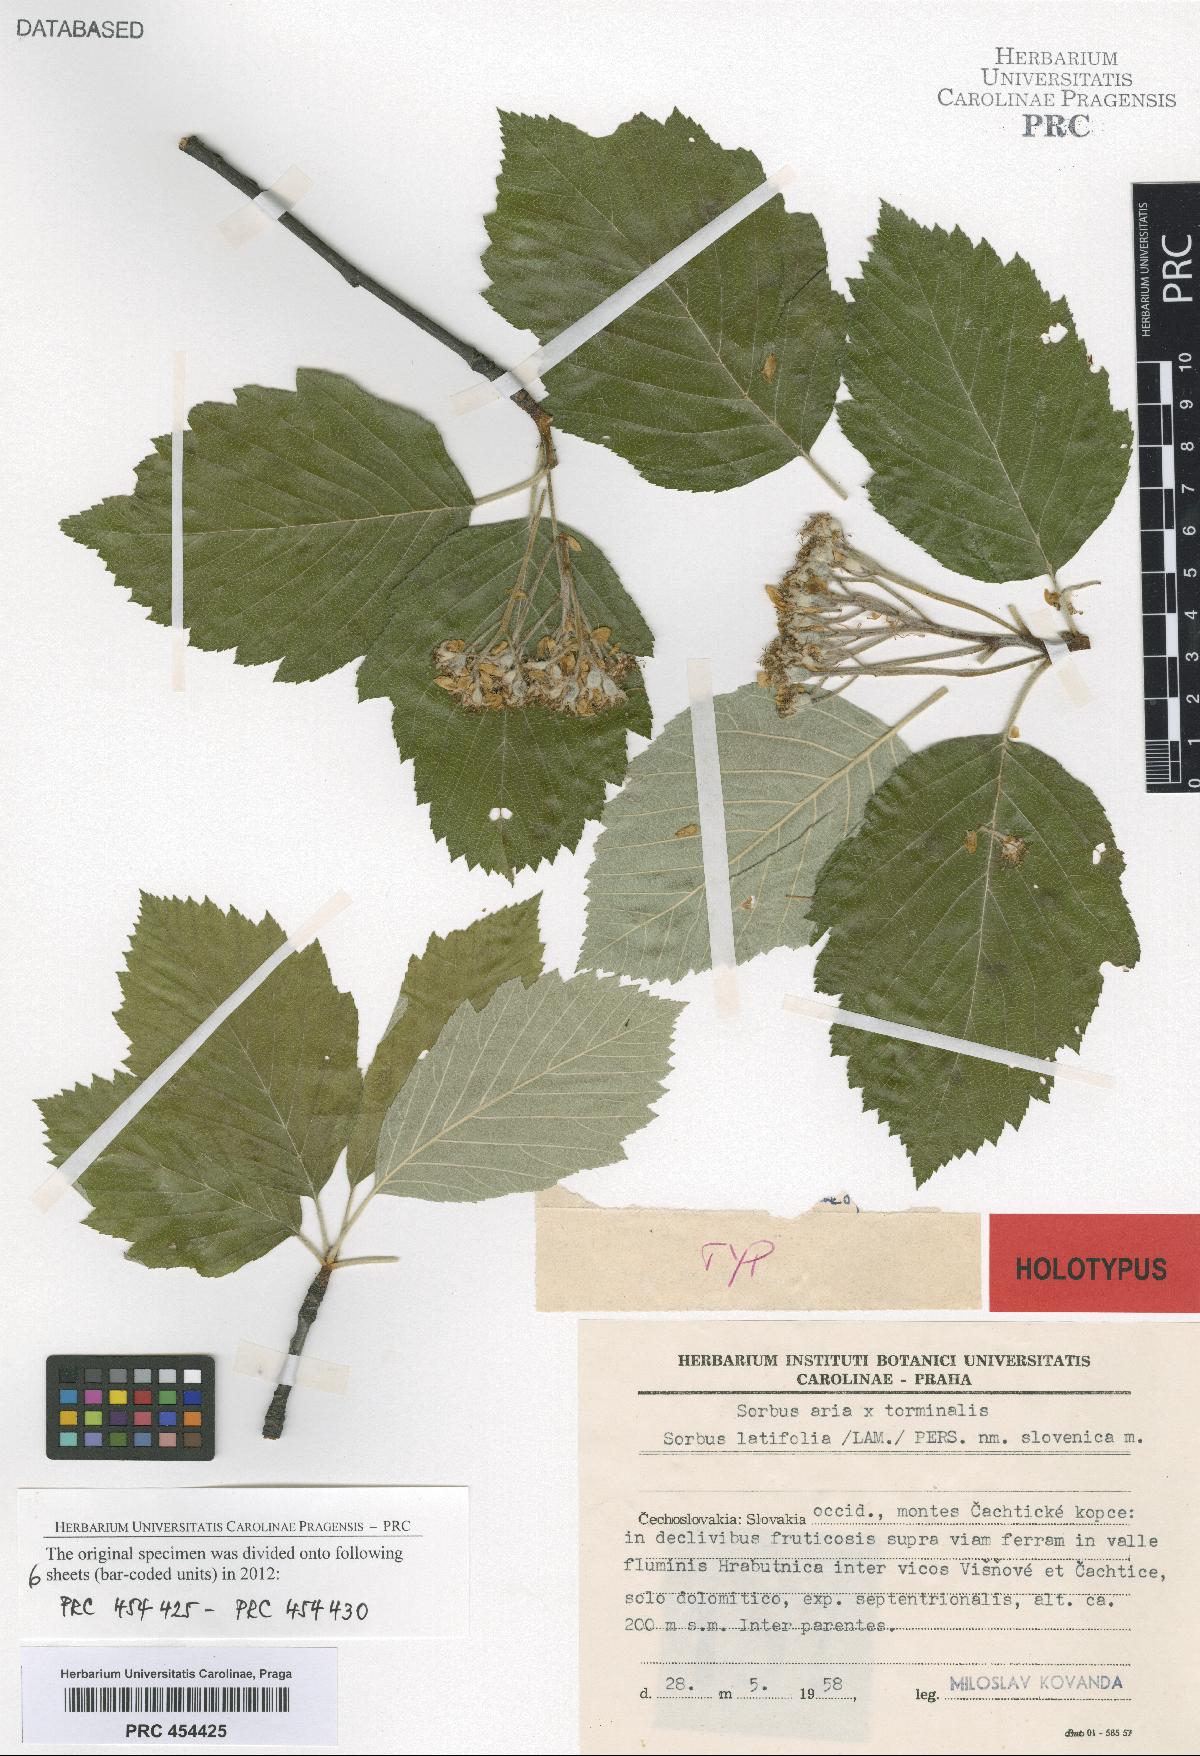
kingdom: Plantae
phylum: Tracheophyta
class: Magnoliopsida
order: Rosales
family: Rosaceae
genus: Karpatiosorbus
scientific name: Karpatiosorbus slovenica
